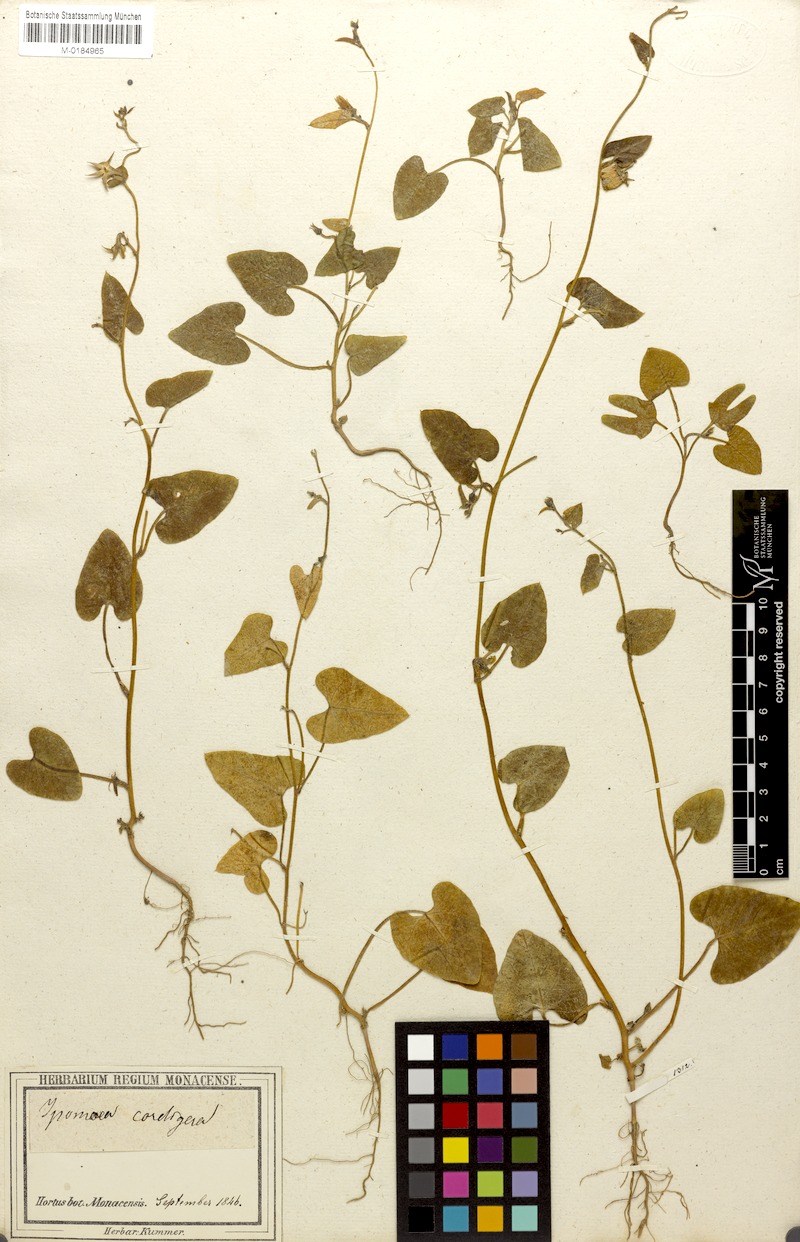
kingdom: Plantae
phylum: Tracheophyta
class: Magnoliopsida
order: Solanales
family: Convolvulaceae
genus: Ipomoea
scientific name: Ipomoea sinensis
